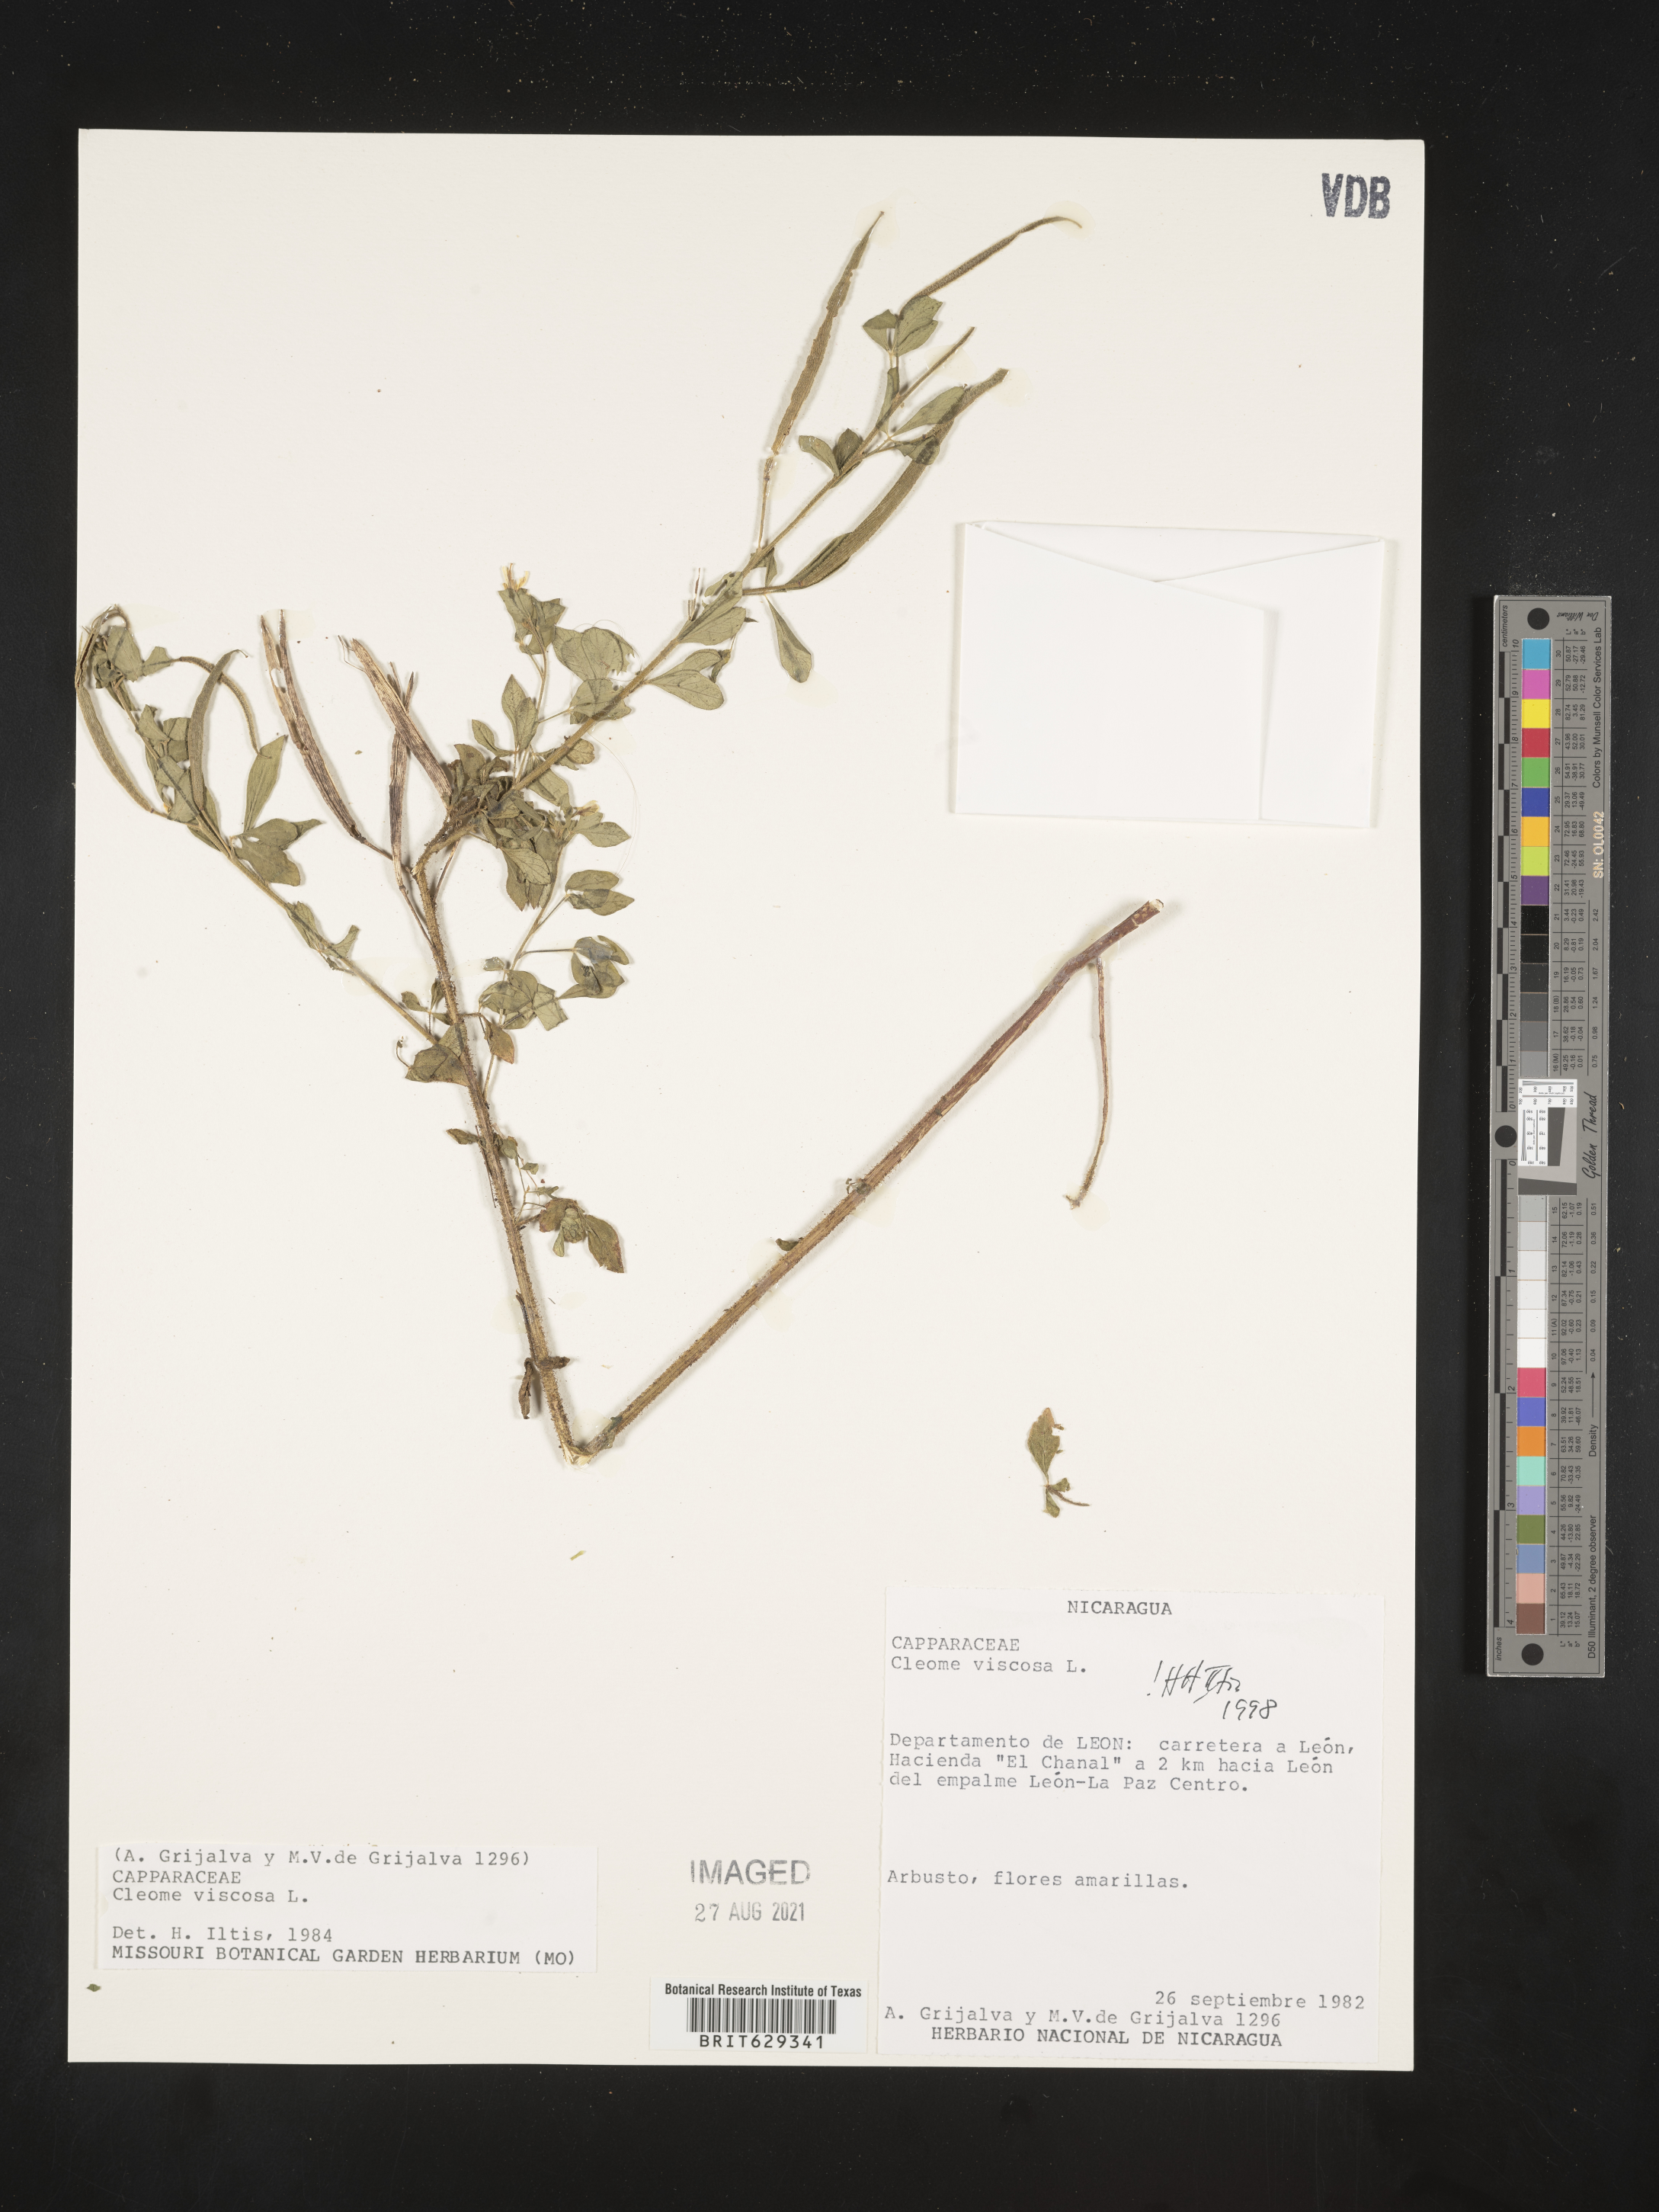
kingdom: Plantae
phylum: Tracheophyta
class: Magnoliopsida
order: Brassicales
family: Cleomaceae
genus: Arivela
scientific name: Arivela viscosa
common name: Asian spiderflower
